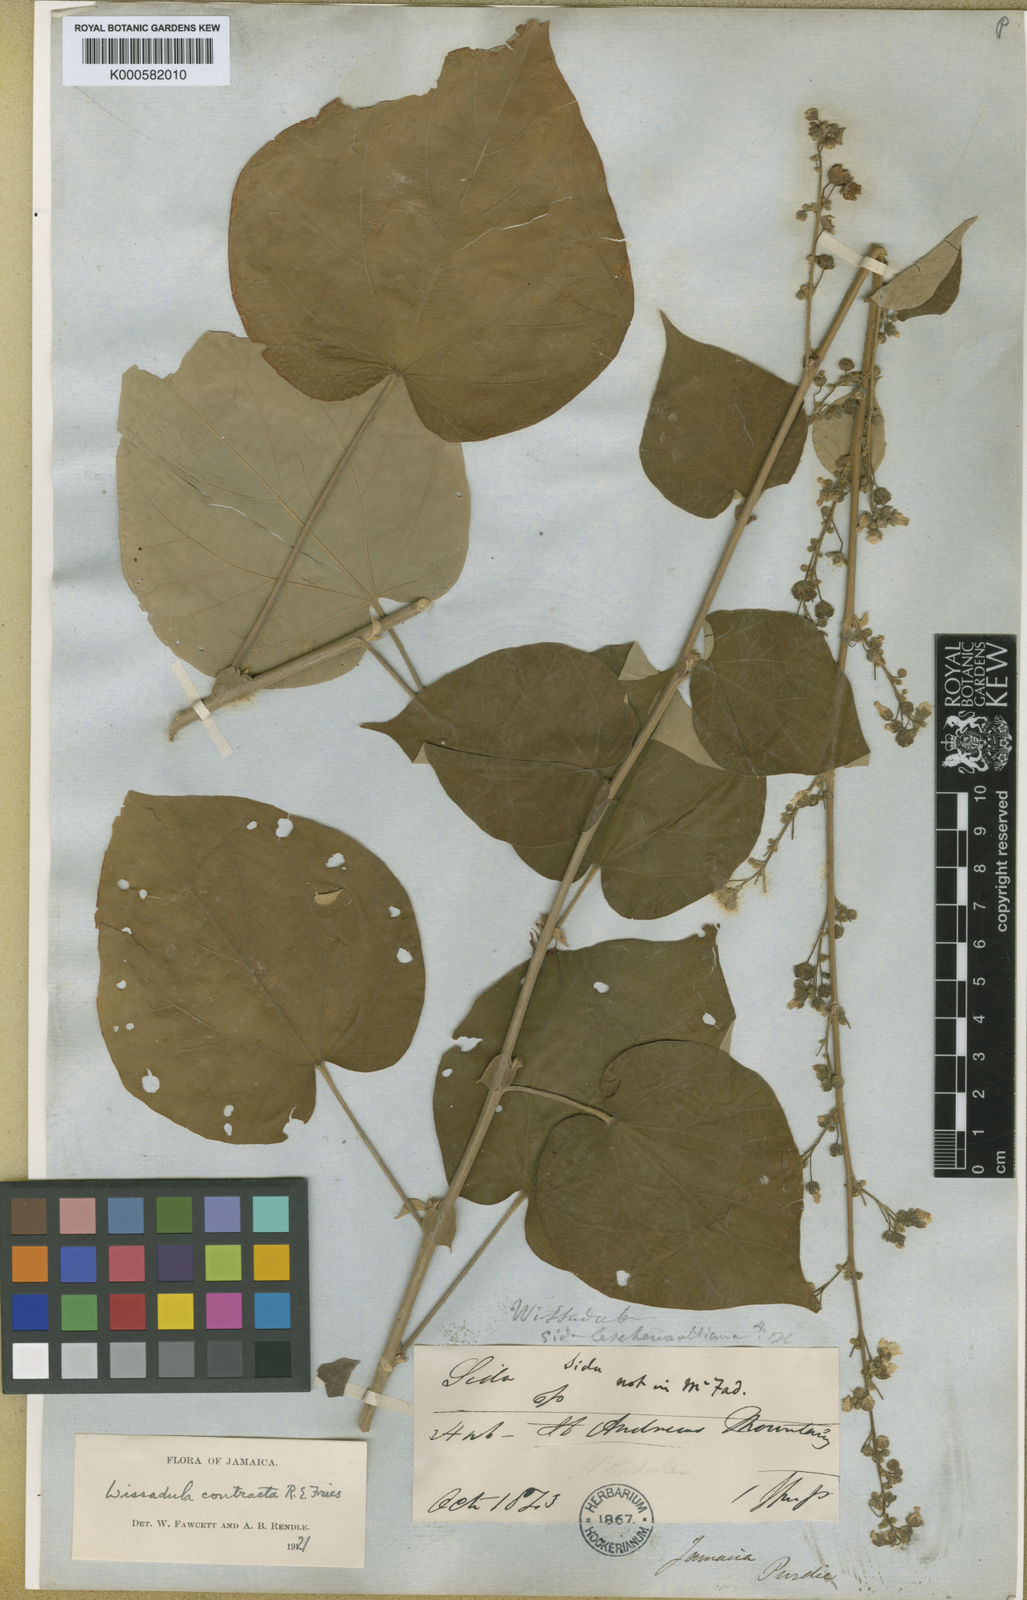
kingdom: Plantae
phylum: Tracheophyta
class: Magnoliopsida
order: Malvales
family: Malvaceae
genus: Wissadula
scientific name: Wissadula contracta
